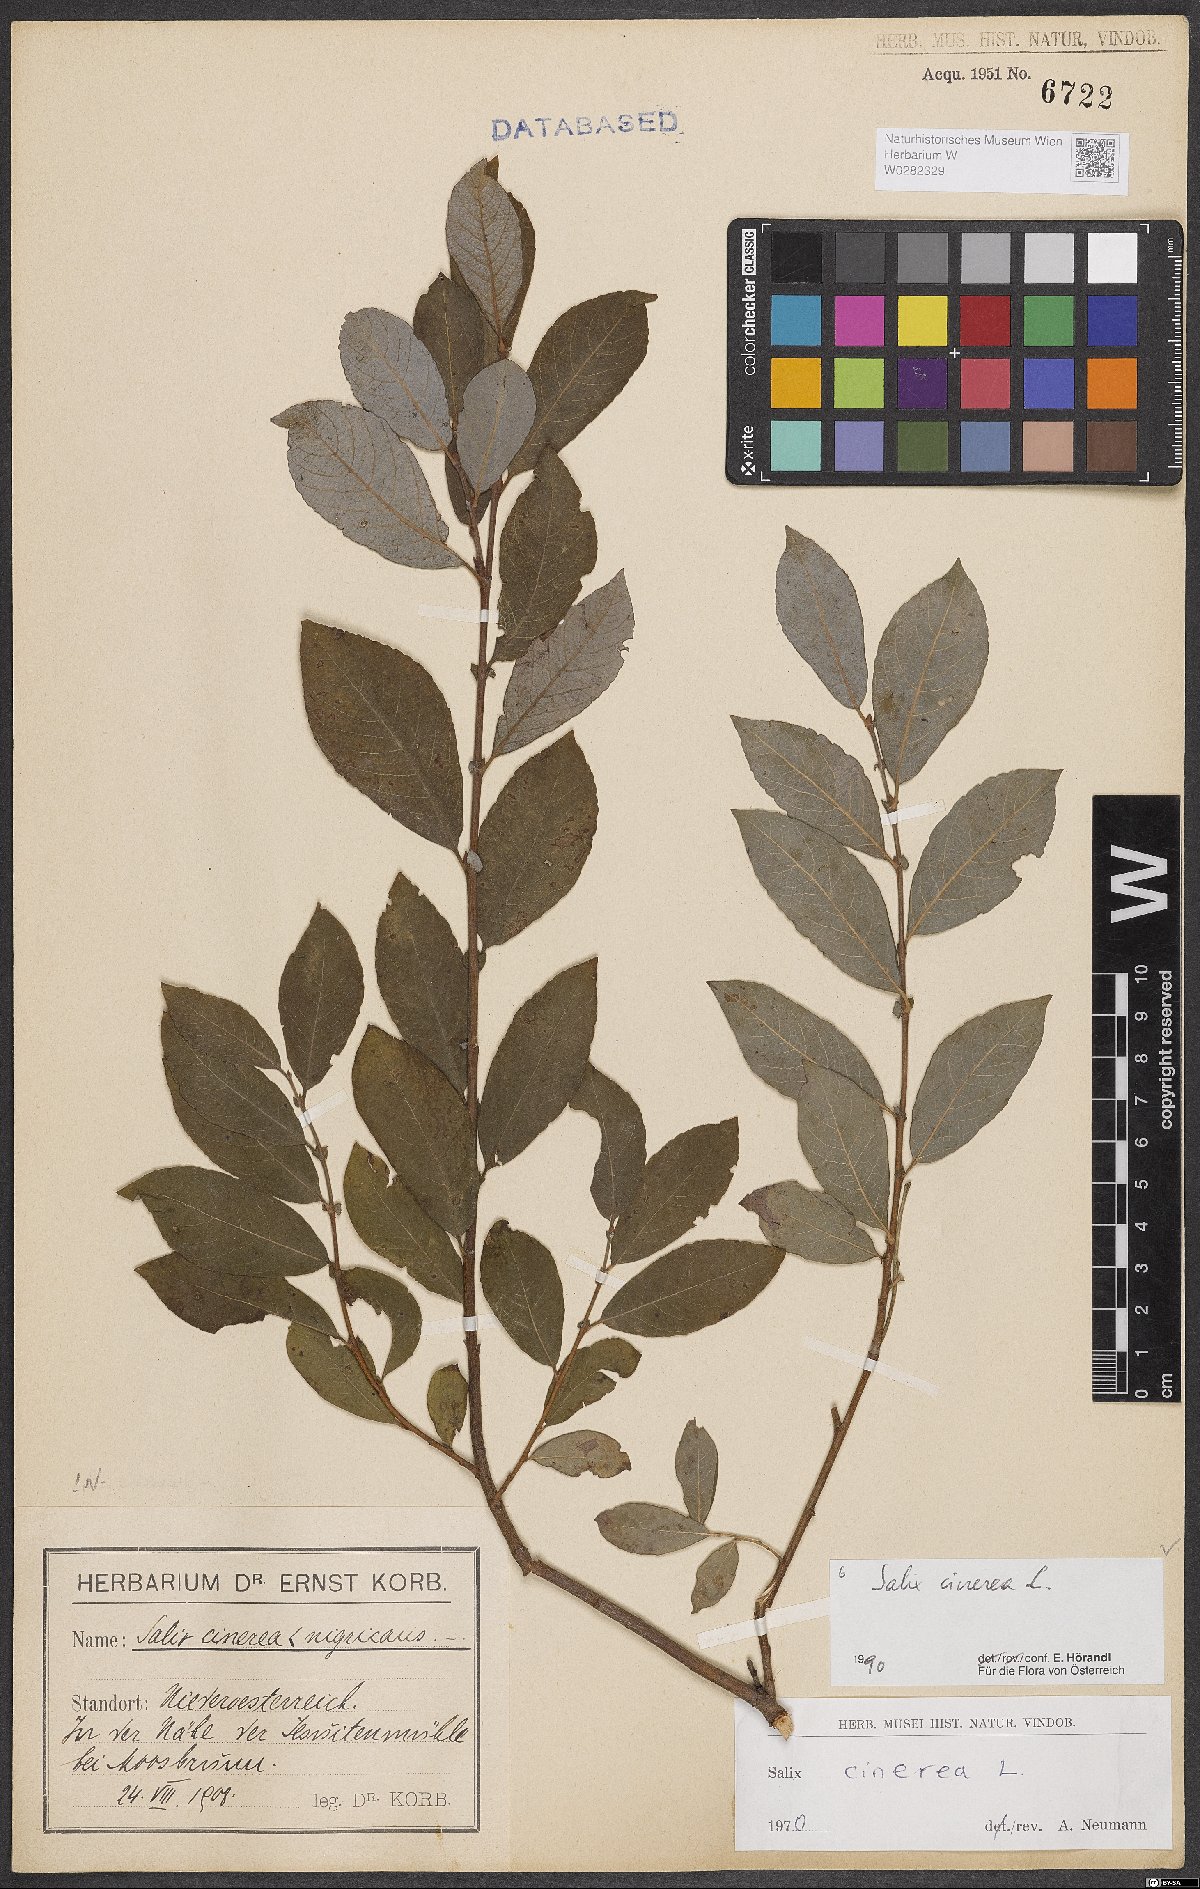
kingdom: Plantae
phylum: Tracheophyta
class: Magnoliopsida
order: Malpighiales
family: Salicaceae
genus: Salix
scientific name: Salix cinerea
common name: Common sallow
